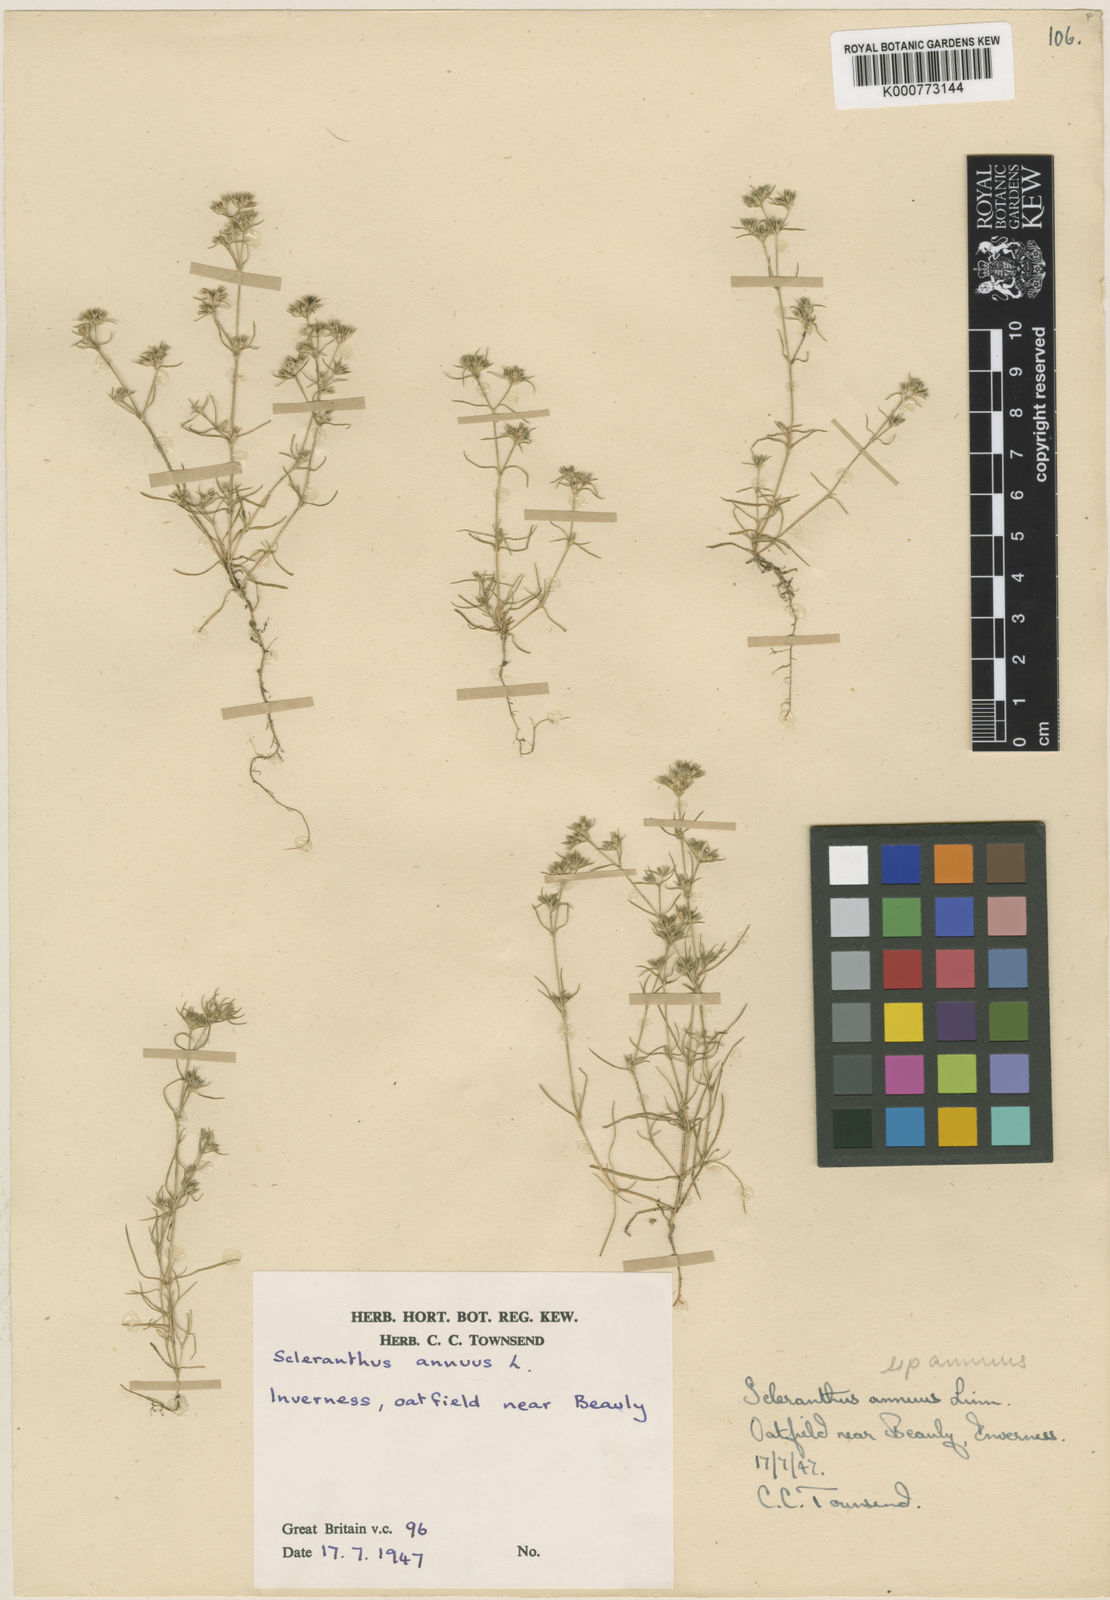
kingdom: Plantae
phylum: Tracheophyta
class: Magnoliopsida
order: Caryophyllales
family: Caryophyllaceae
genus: Scleranthus
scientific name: Scleranthus annuus
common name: Annual knawel
